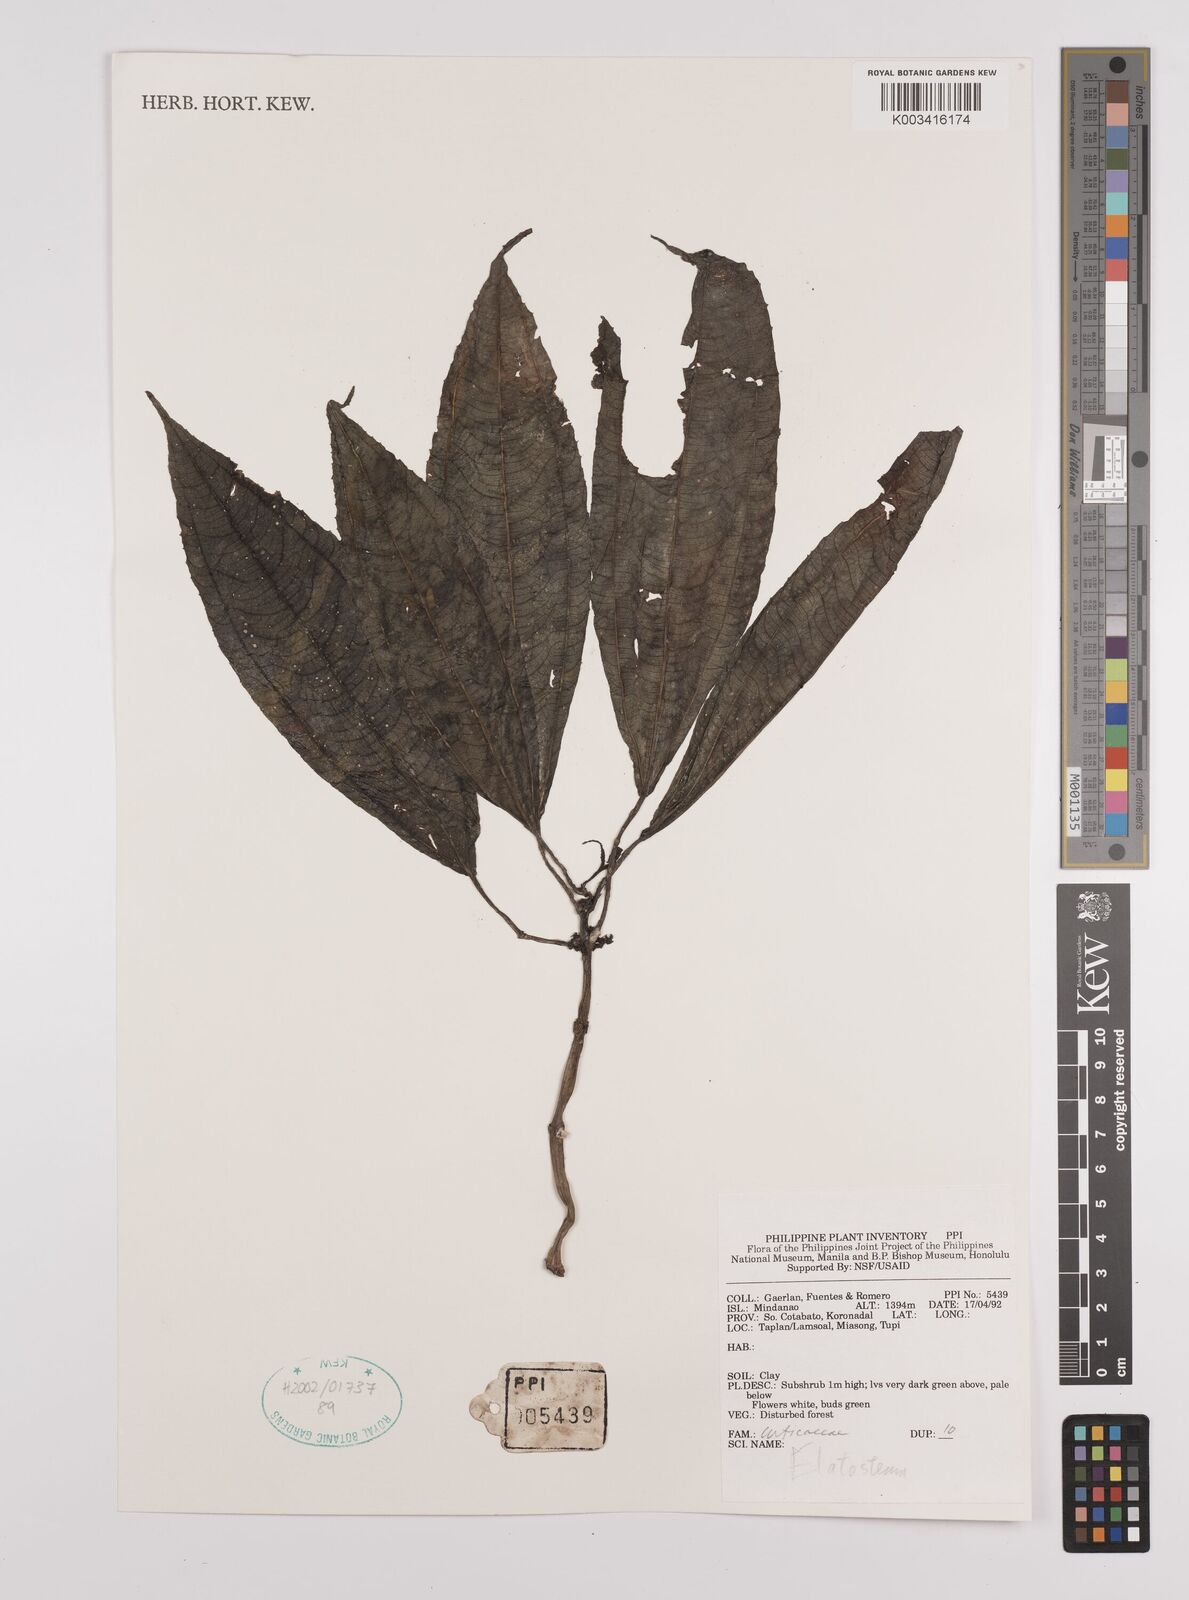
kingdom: Plantae
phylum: Tracheophyta
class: Magnoliopsida
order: Rosales
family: Urticaceae
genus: Elatostema
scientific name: Elatostema
